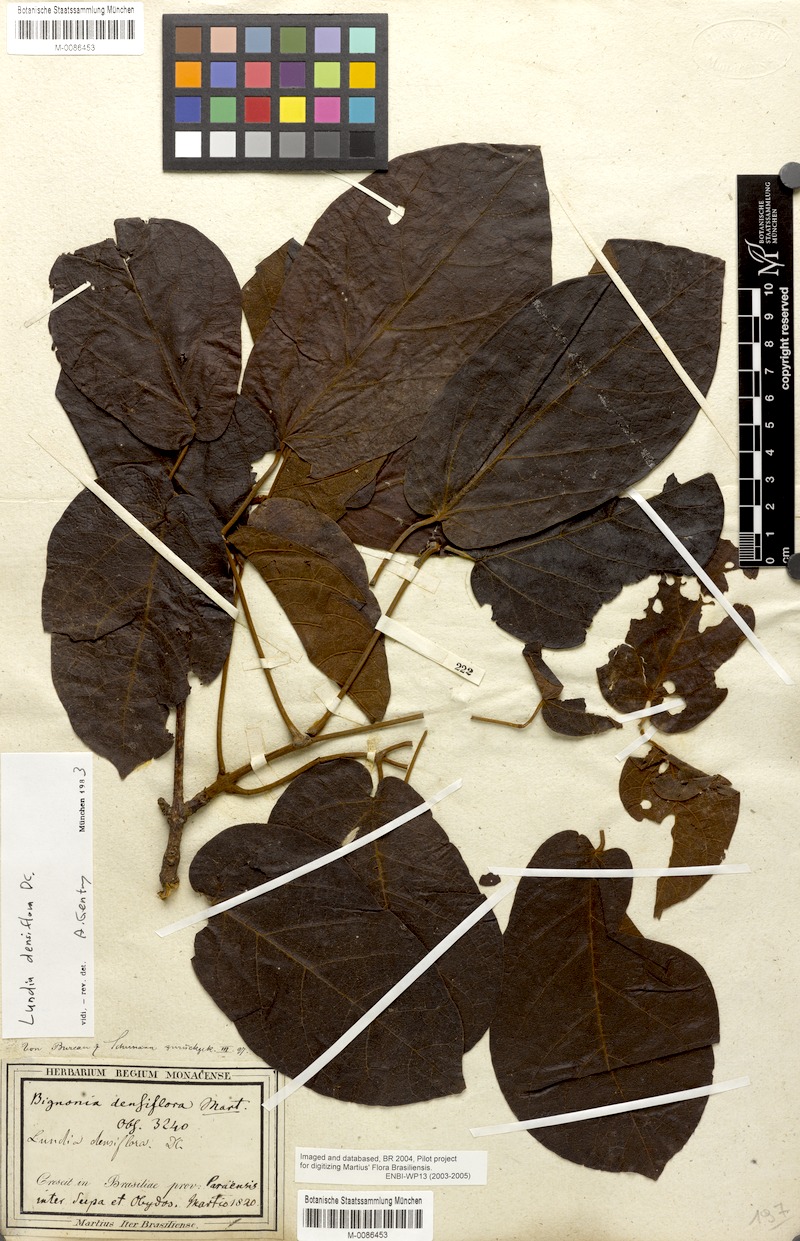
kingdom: Plantae
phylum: Tracheophyta
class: Magnoliopsida
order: Lamiales
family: Bignoniaceae
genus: Lundia
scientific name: Lundia densiflora
